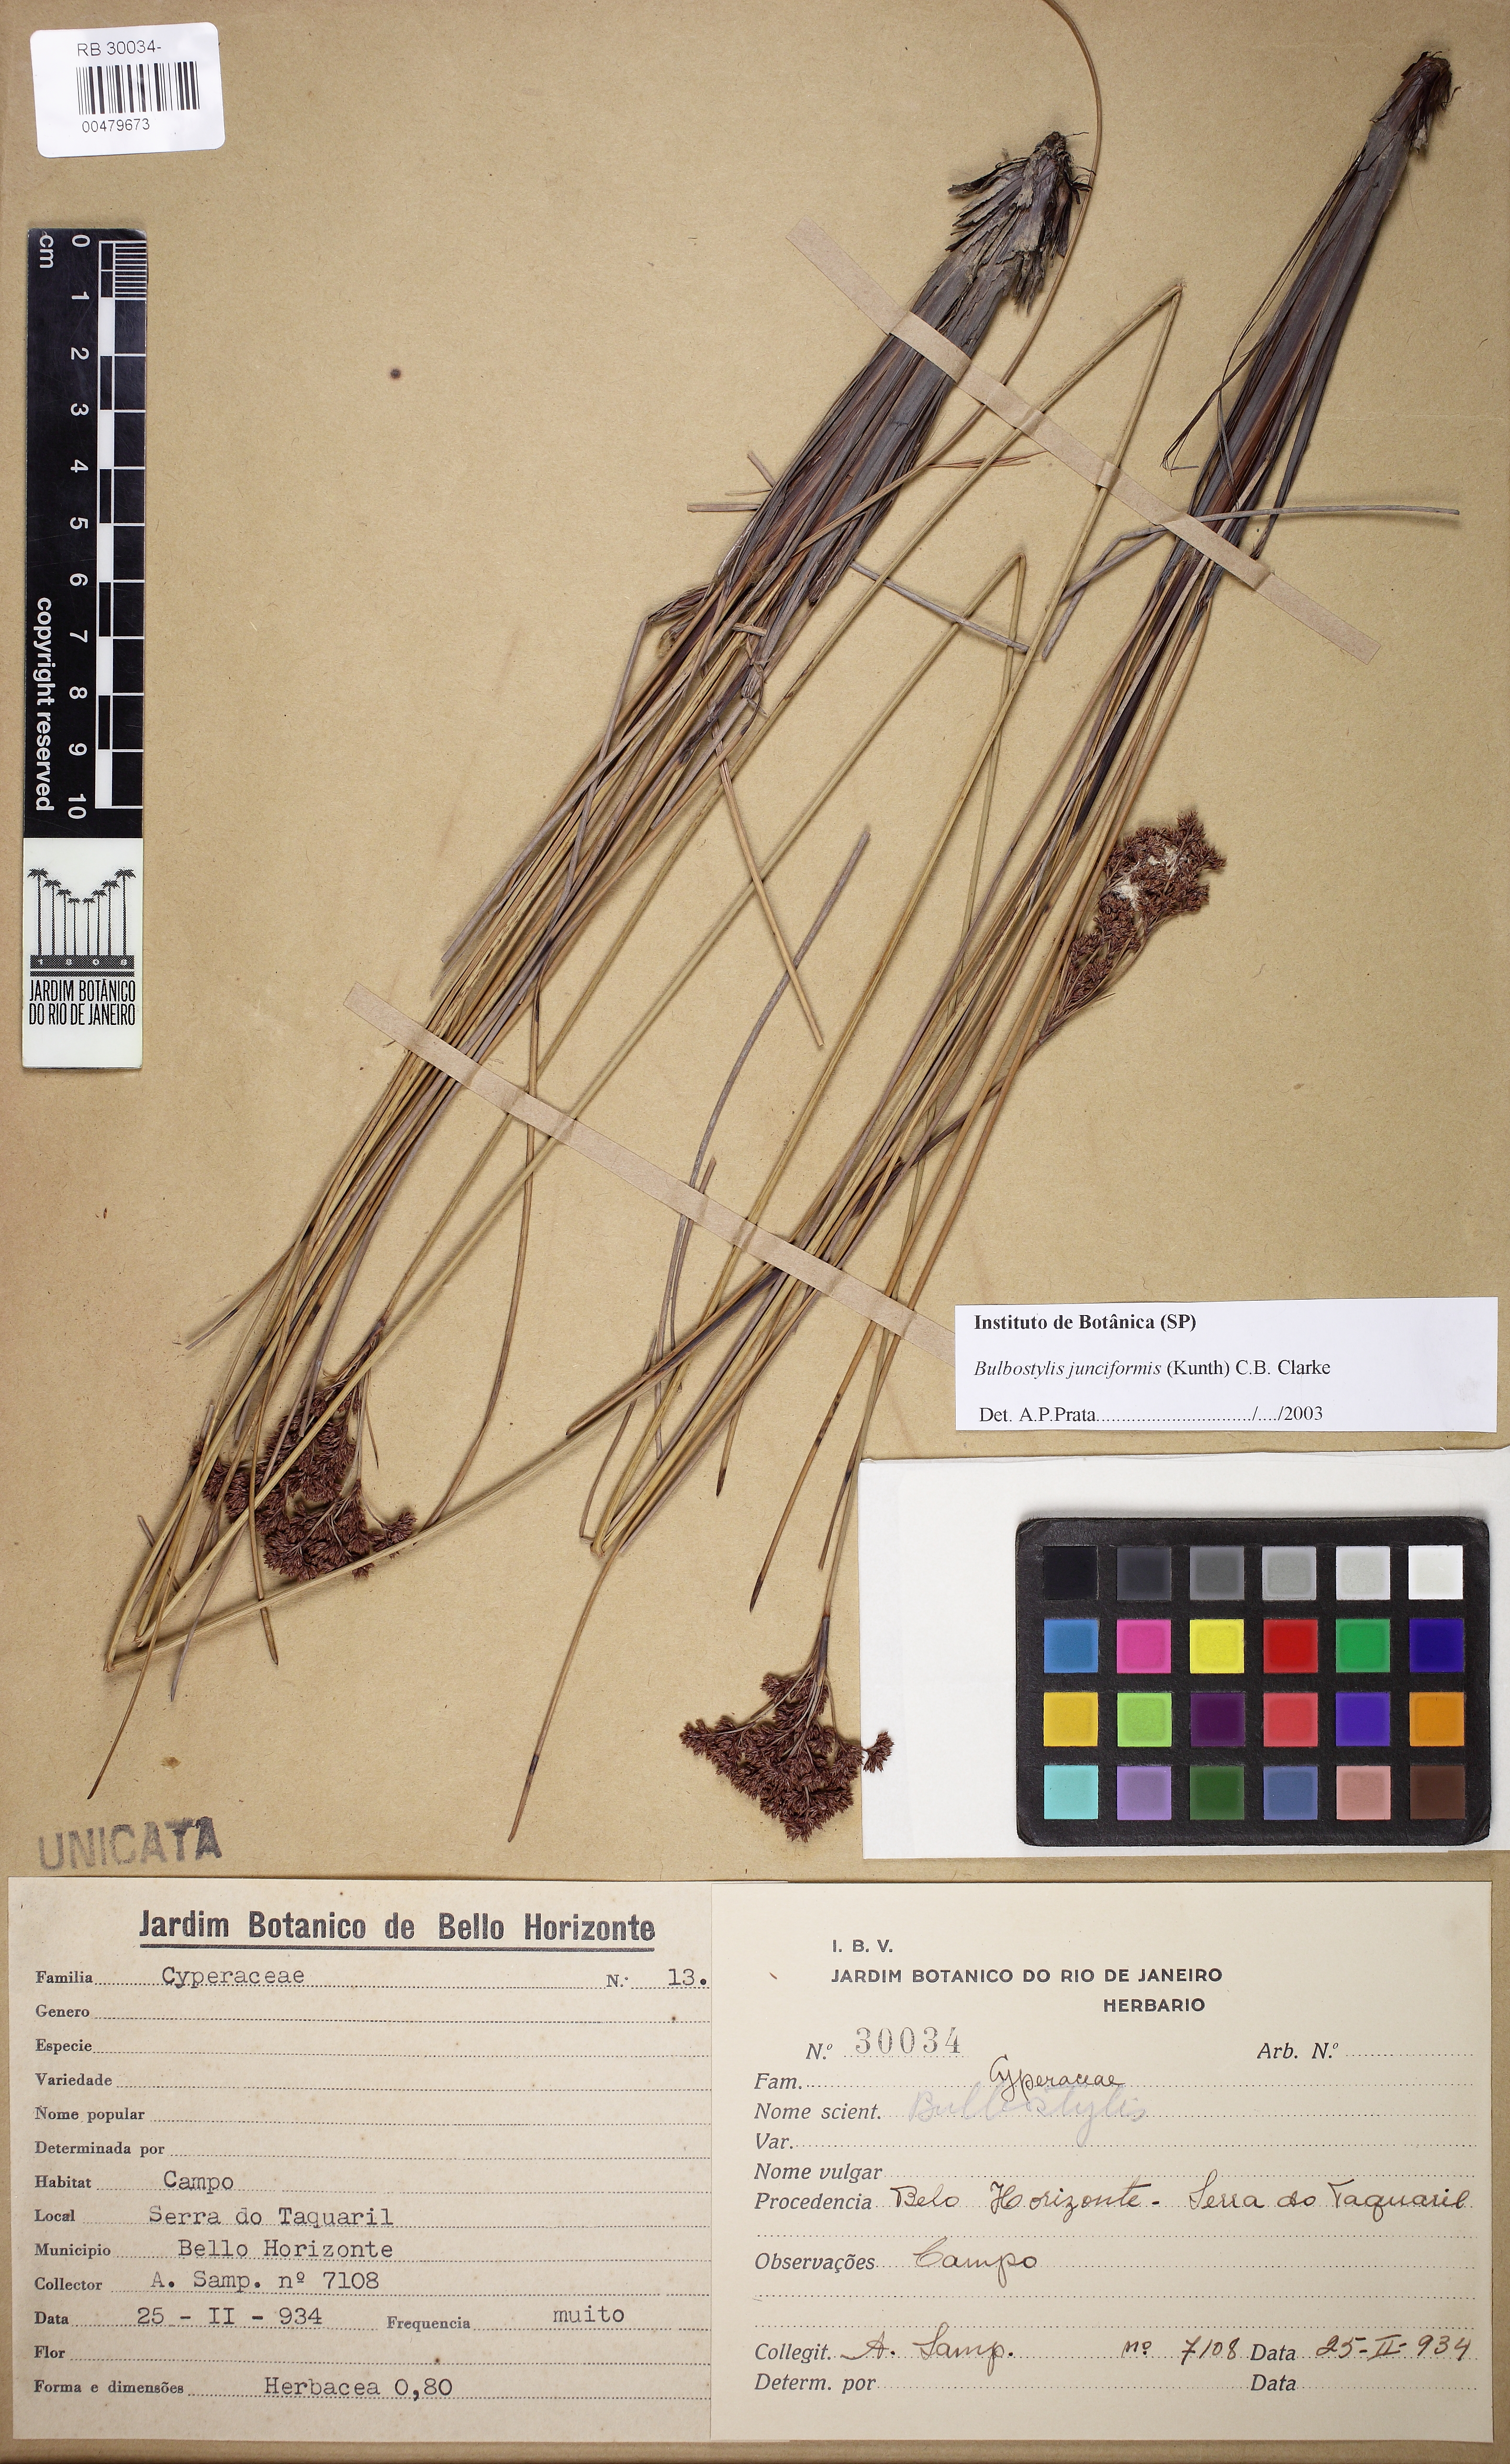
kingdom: Plantae
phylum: Tracheophyta
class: Liliopsida
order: Poales
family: Cyperaceae
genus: Bulbostylis
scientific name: Bulbostylis junciformis
